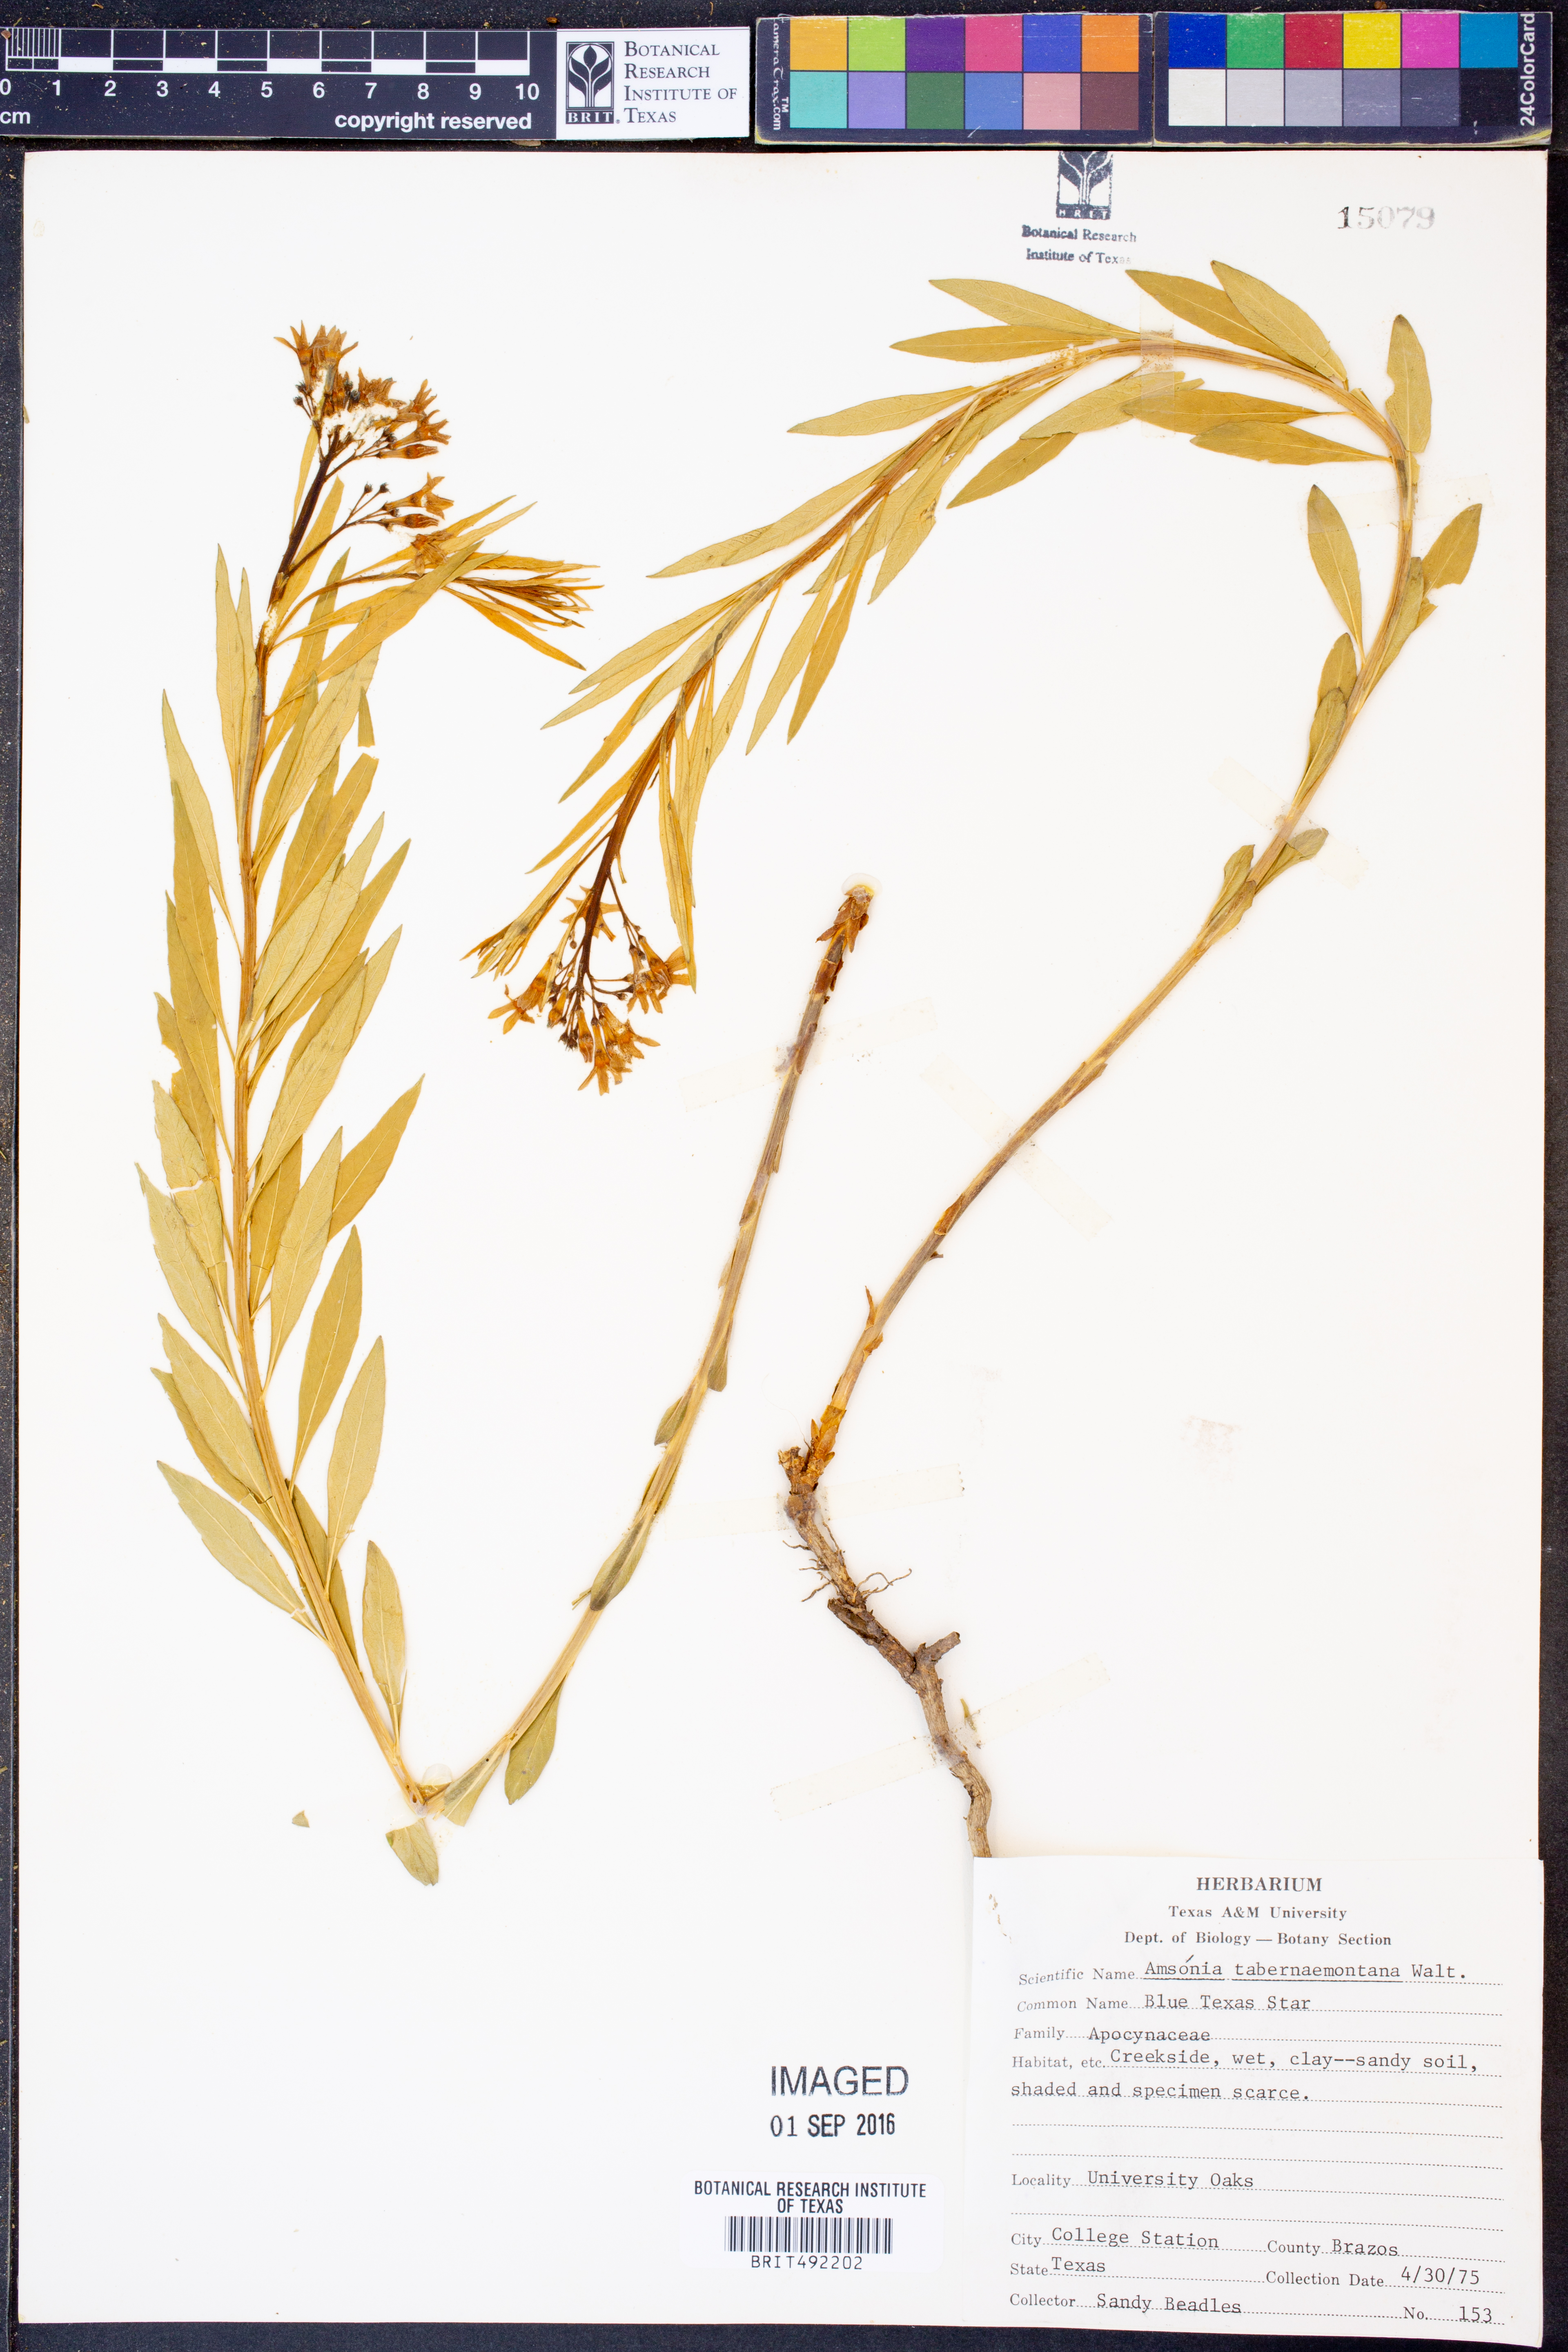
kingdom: Plantae
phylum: Tracheophyta
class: Magnoliopsida
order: Gentianales
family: Apocynaceae
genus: Amsonia
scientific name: Amsonia tabernaemontana
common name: Texas-star
